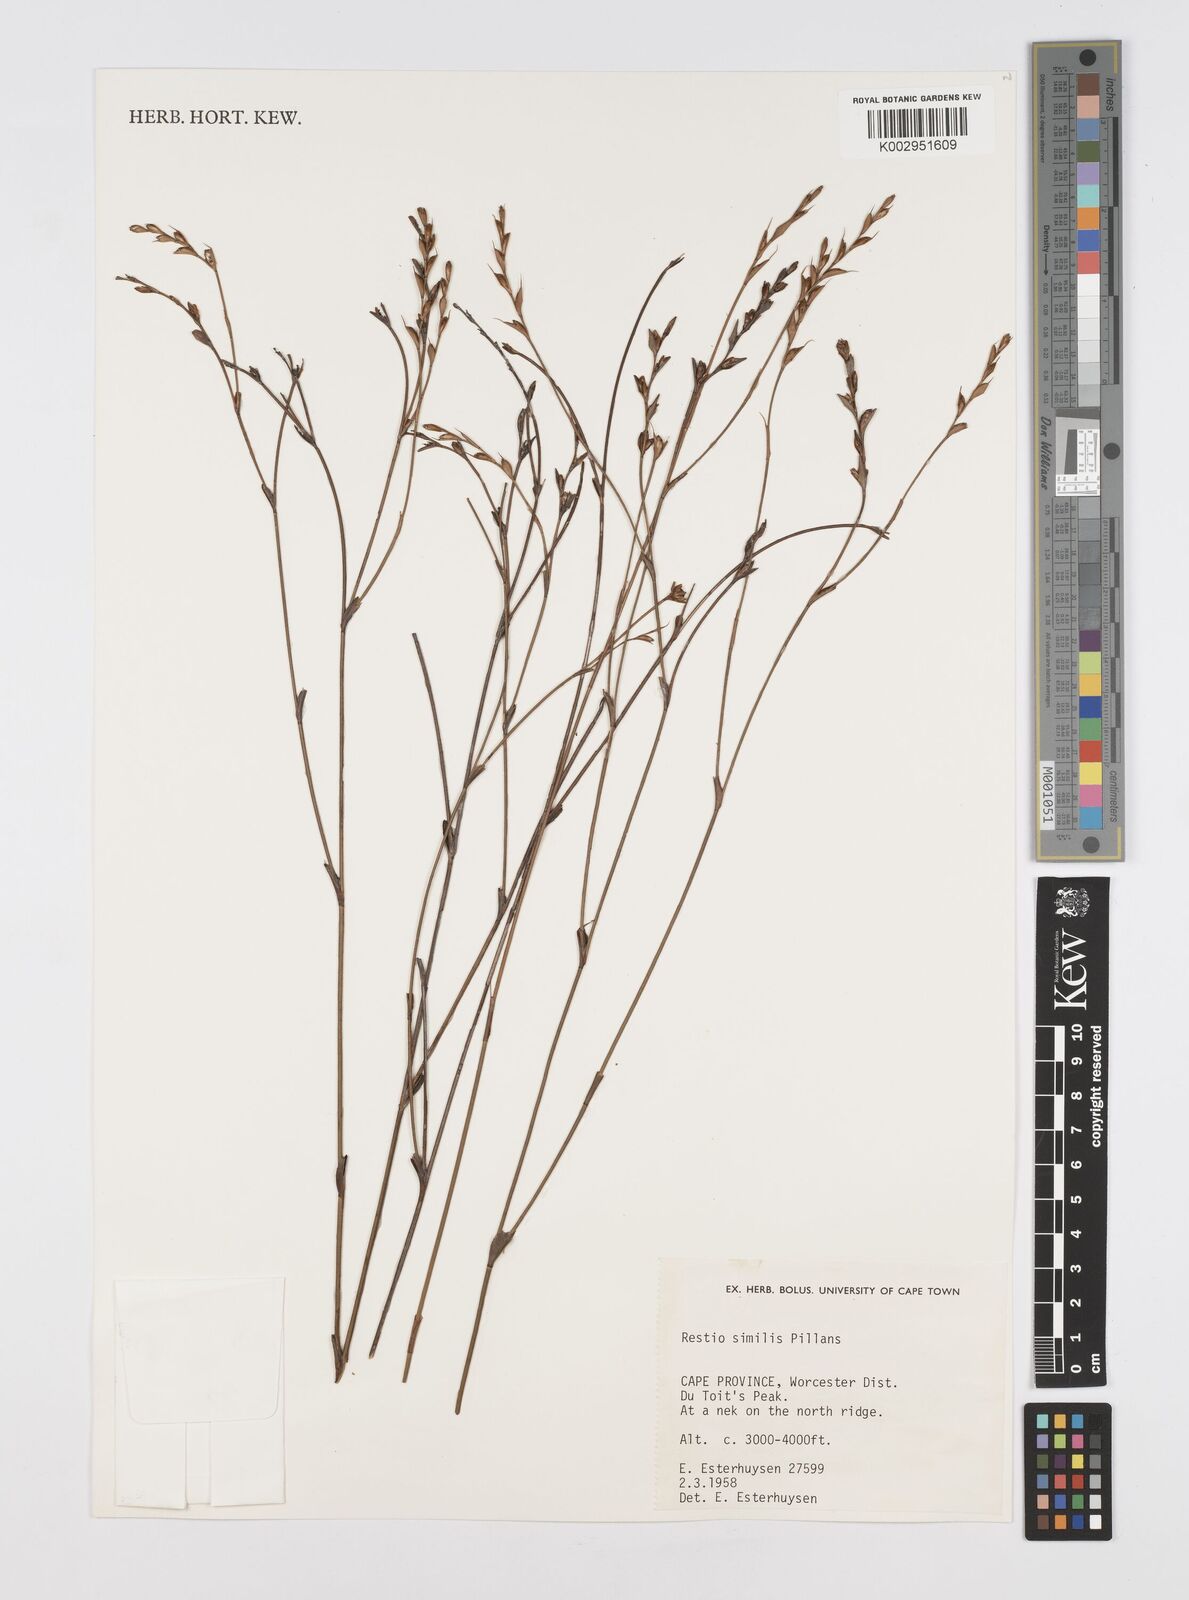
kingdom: Plantae
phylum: Tracheophyta
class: Liliopsida
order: Poales
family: Restionaceae
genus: Restio
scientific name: Restio similis
